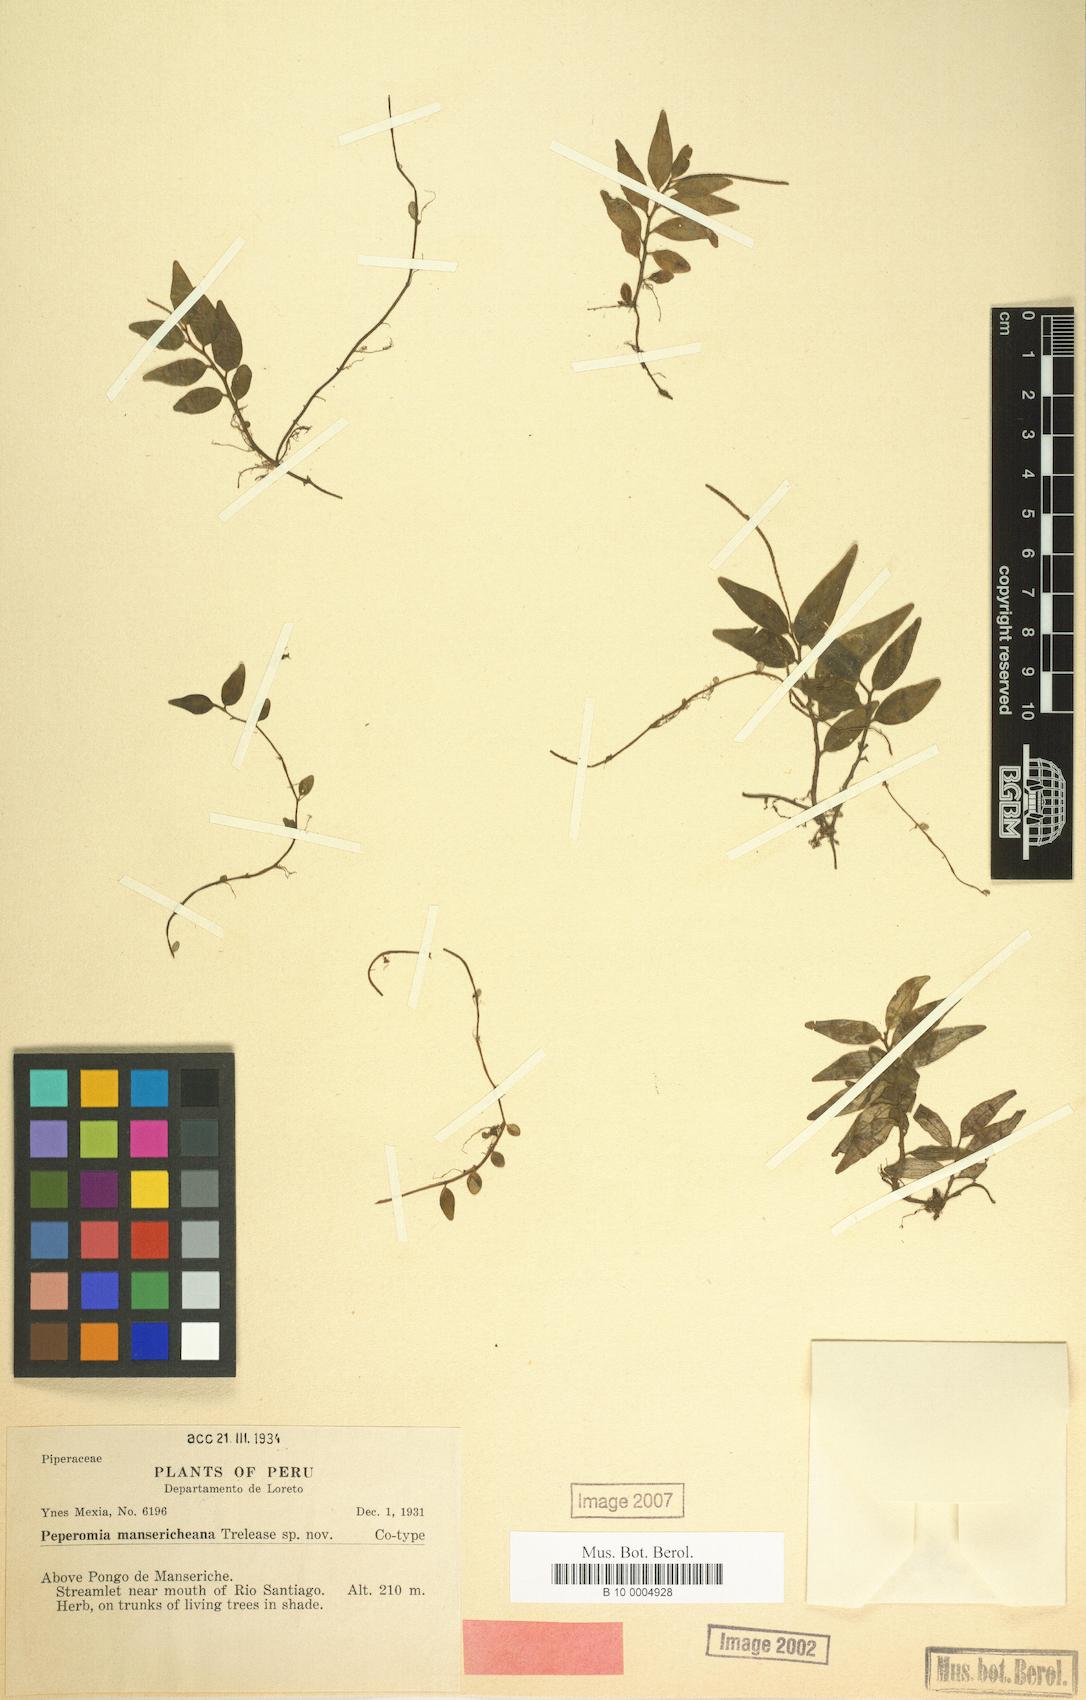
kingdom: Plantae
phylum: Tracheophyta
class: Magnoliopsida
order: Piperales
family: Piperaceae
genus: Peperomia
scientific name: Peperomia heterophylla
